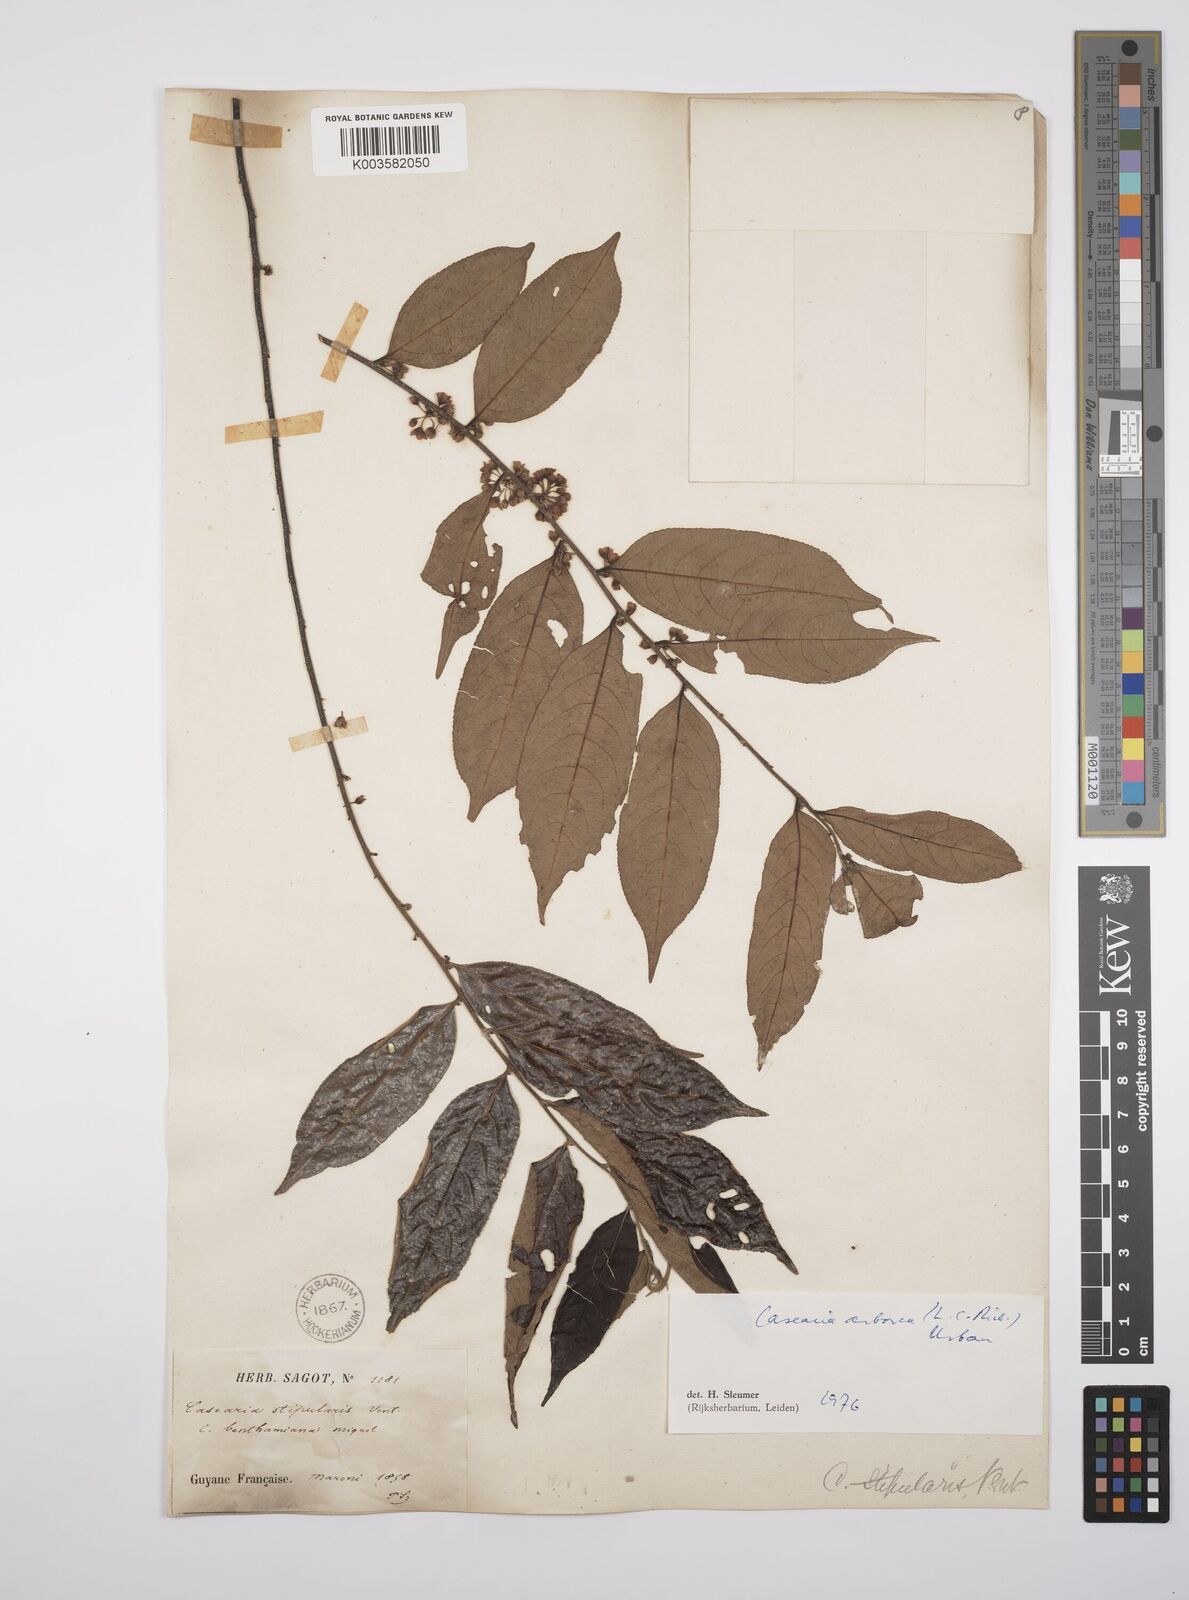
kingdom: Plantae
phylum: Tracheophyta
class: Magnoliopsida
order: Malpighiales
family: Salicaceae
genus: Casearia
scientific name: Casearia arborea
